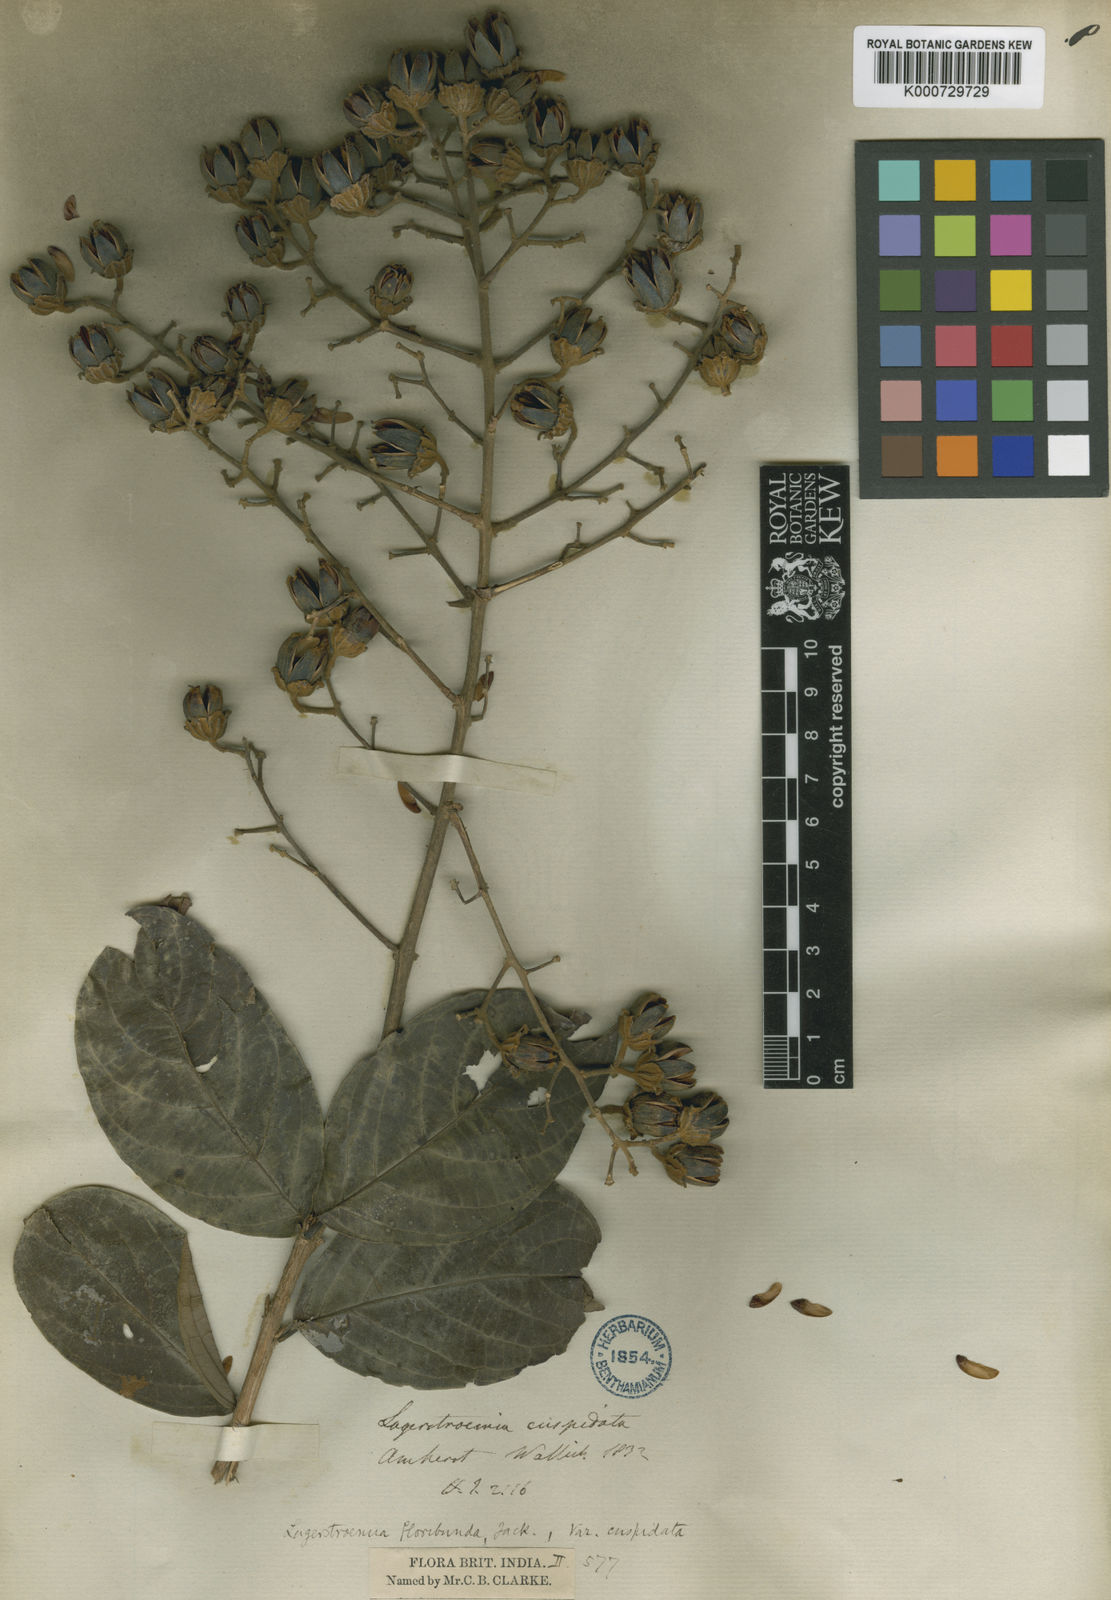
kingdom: Plantae
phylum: Tracheophyta
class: Magnoliopsida
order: Myrtales
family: Lythraceae
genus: Lagerstroemia
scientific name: Lagerstroemia floribunda
